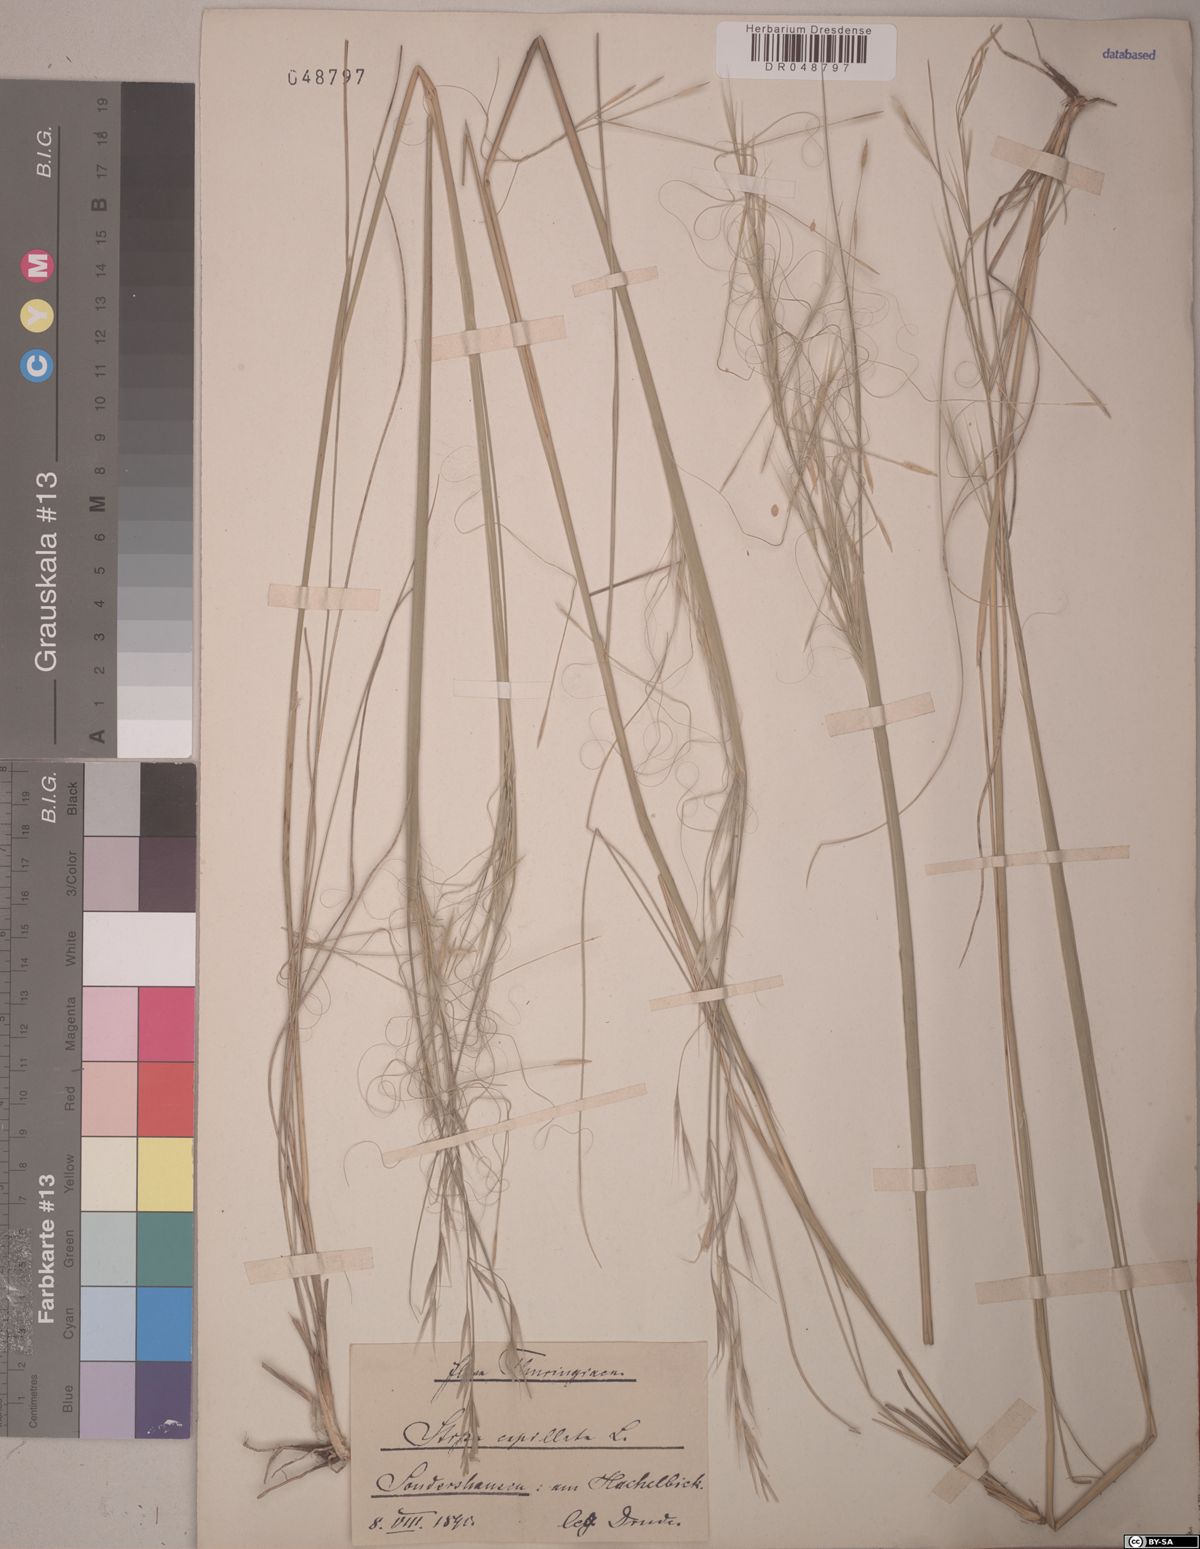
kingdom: Plantae
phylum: Tracheophyta
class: Liliopsida
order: Poales
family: Poaceae
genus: Stipa
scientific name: Stipa capillata
